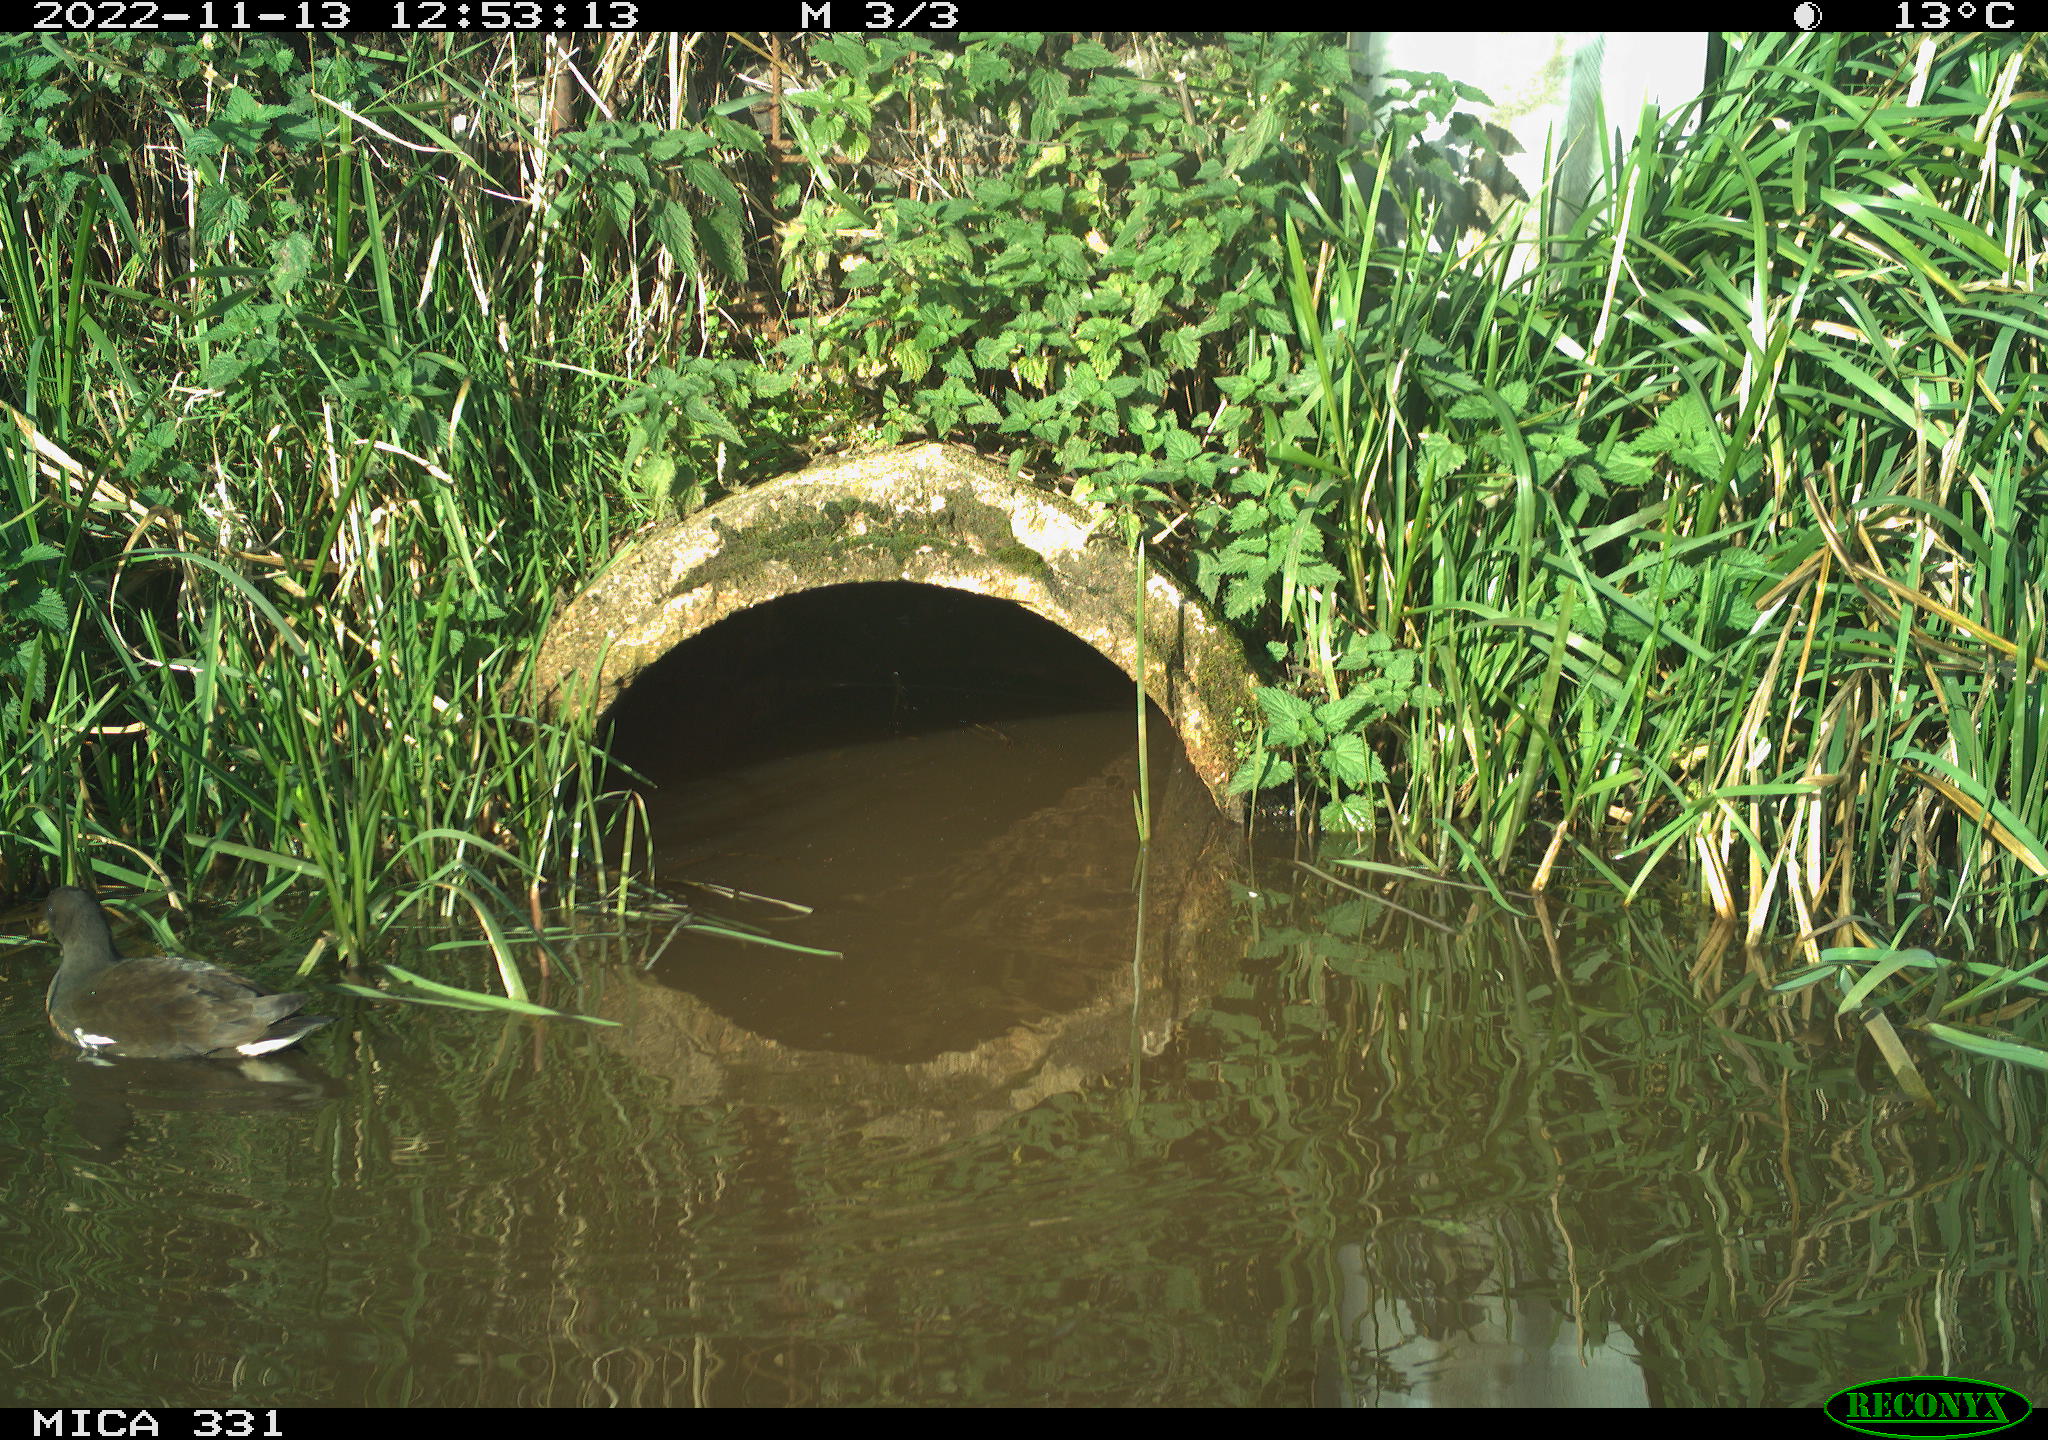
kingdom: Animalia
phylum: Chordata
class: Aves
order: Gruiformes
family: Rallidae
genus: Gallinula
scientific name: Gallinula chloropus
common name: Common moorhen
